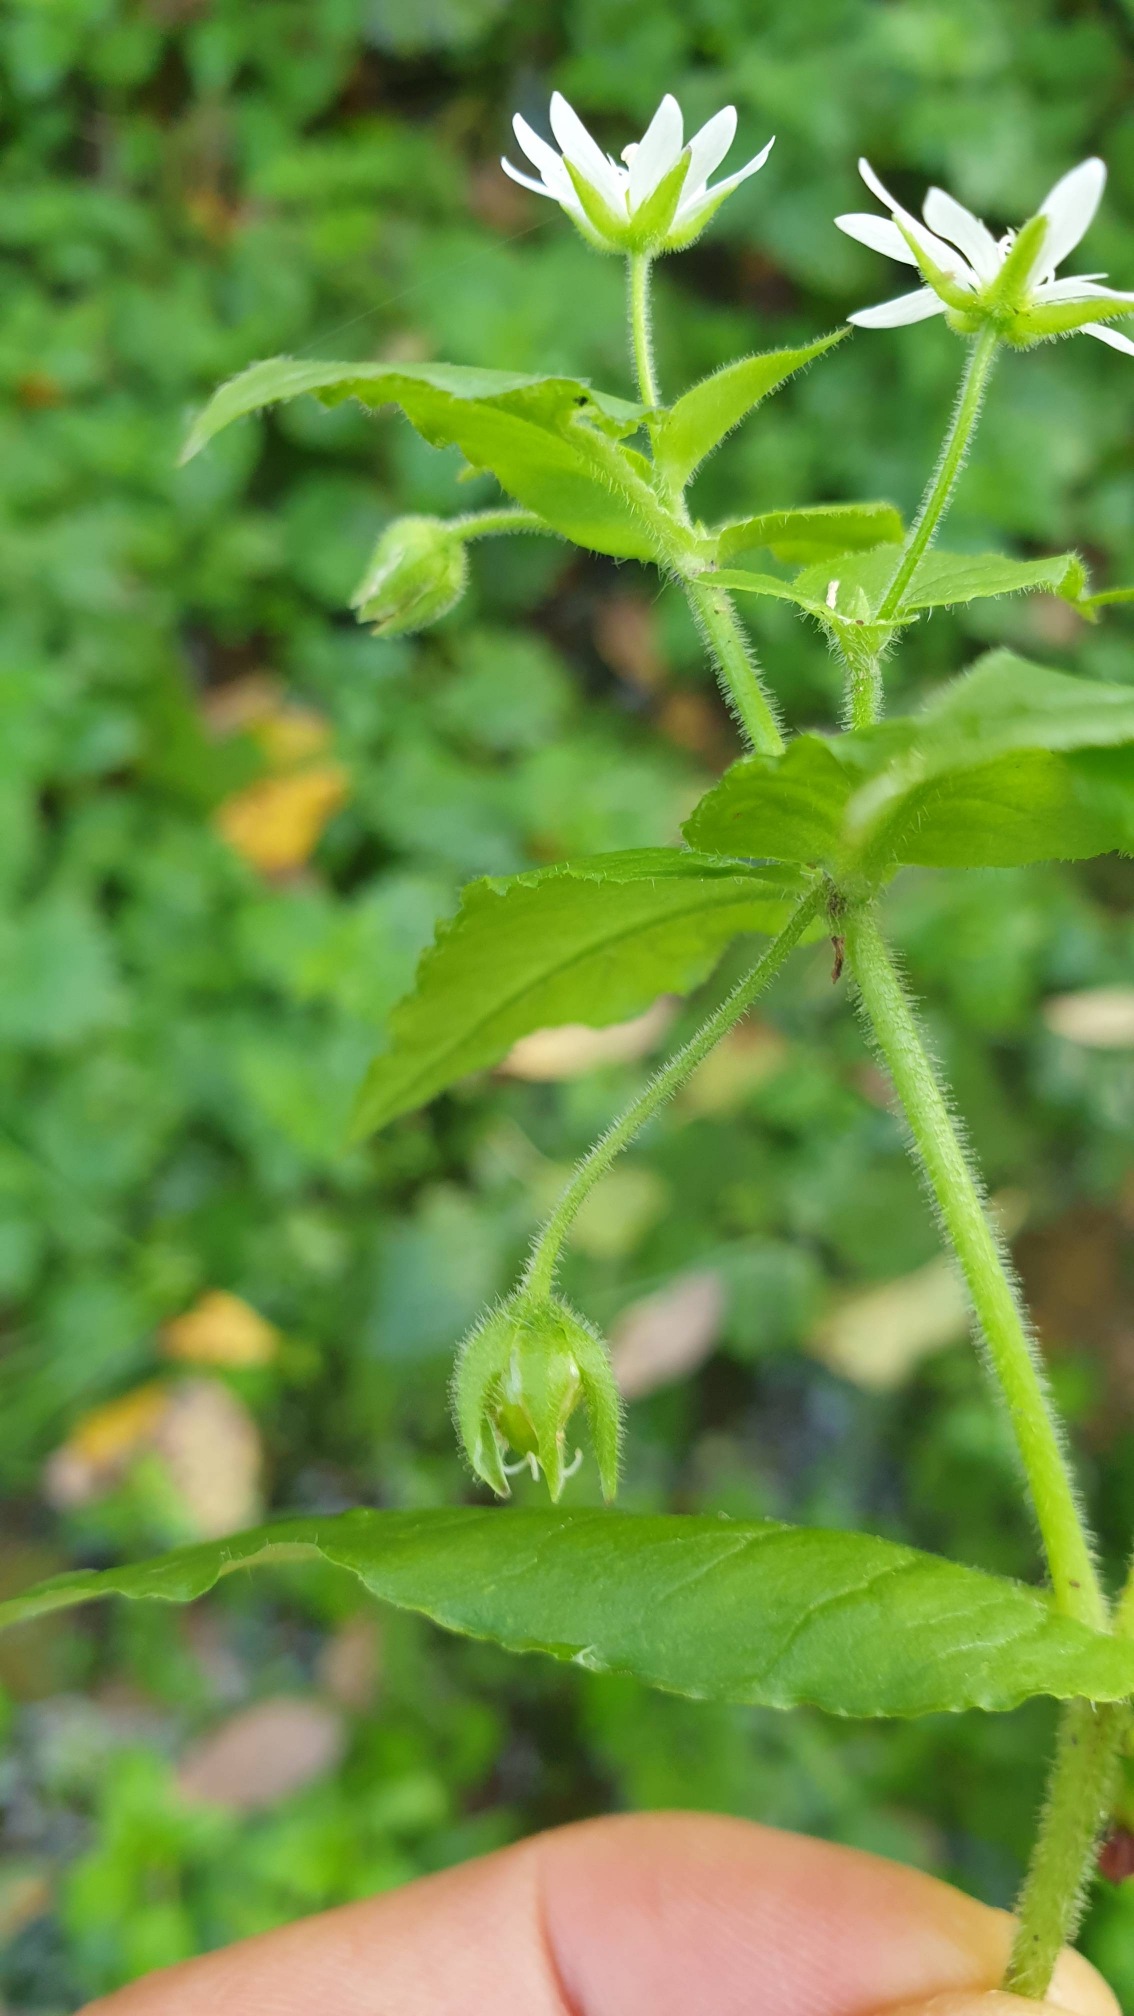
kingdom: Plantae
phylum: Tracheophyta
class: Magnoliopsida
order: Caryophyllales
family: Caryophyllaceae
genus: Stellaria
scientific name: Stellaria aquatica
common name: Kløvkrone
